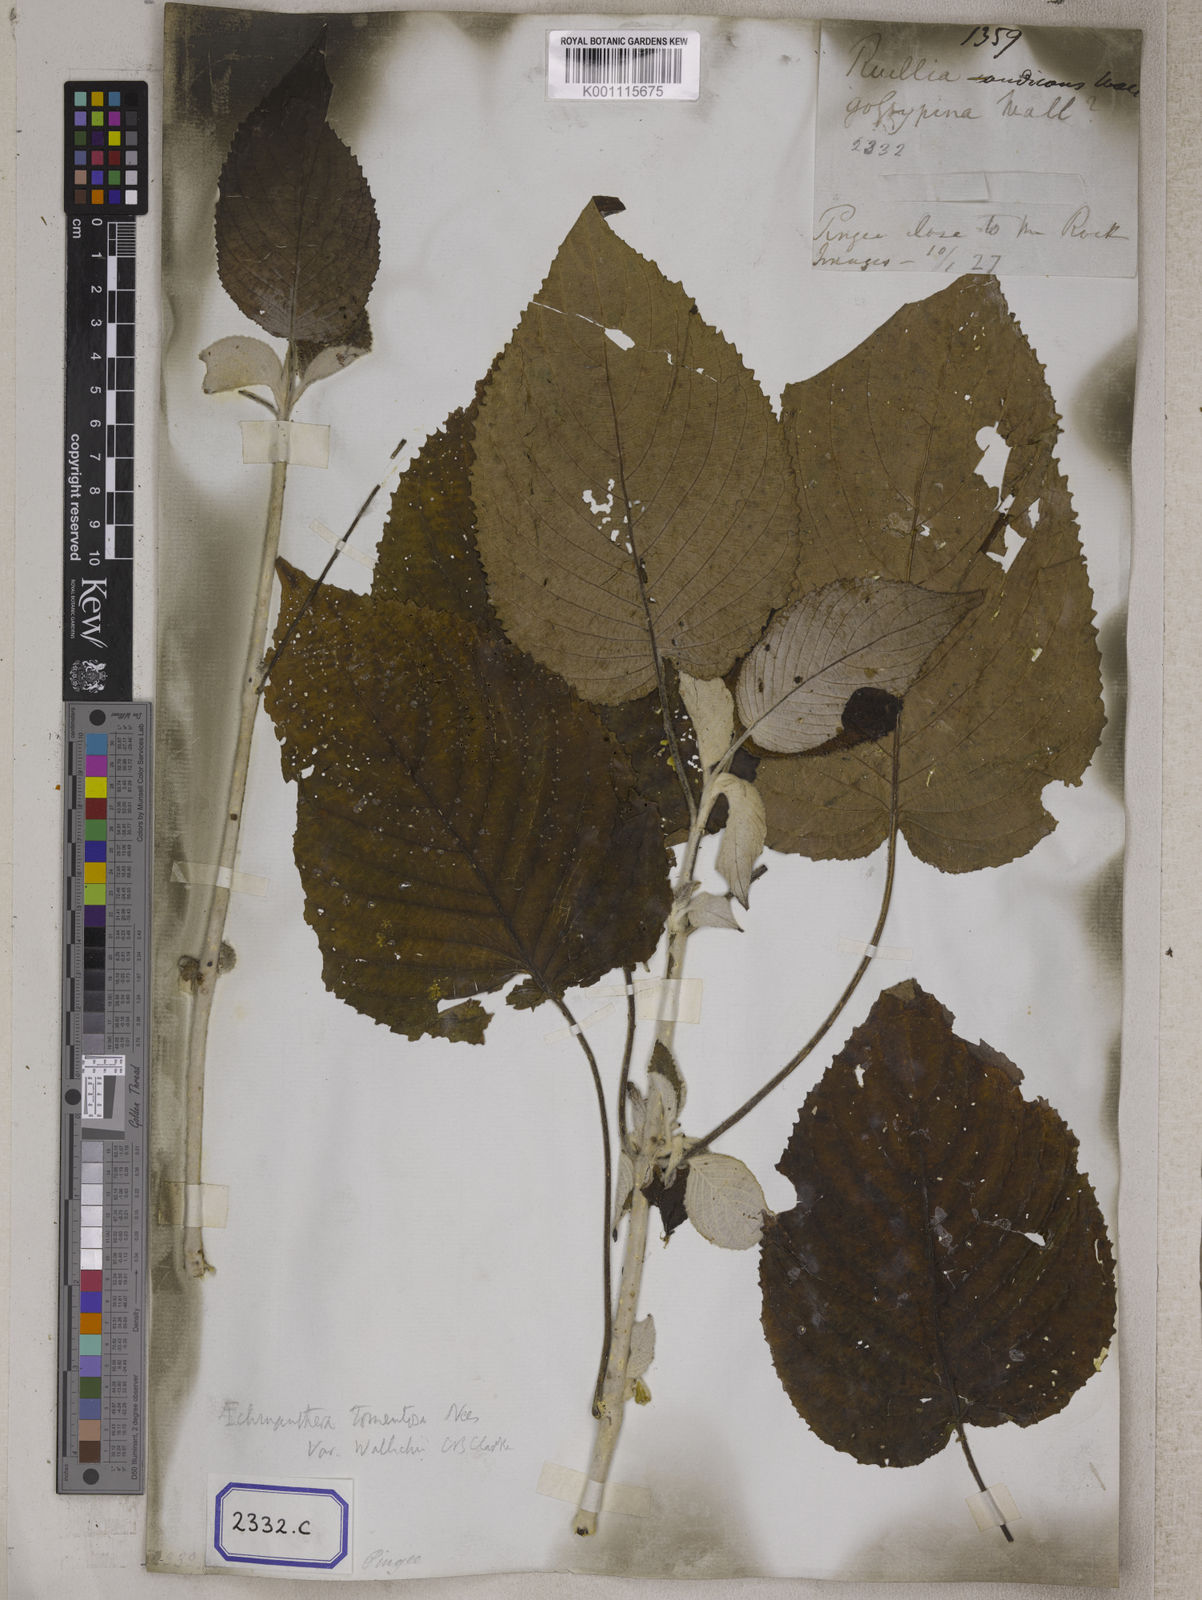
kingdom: Plantae
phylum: Tracheophyta
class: Magnoliopsida
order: Lamiales
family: Acanthaceae
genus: Ruellia
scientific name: Ruellia
